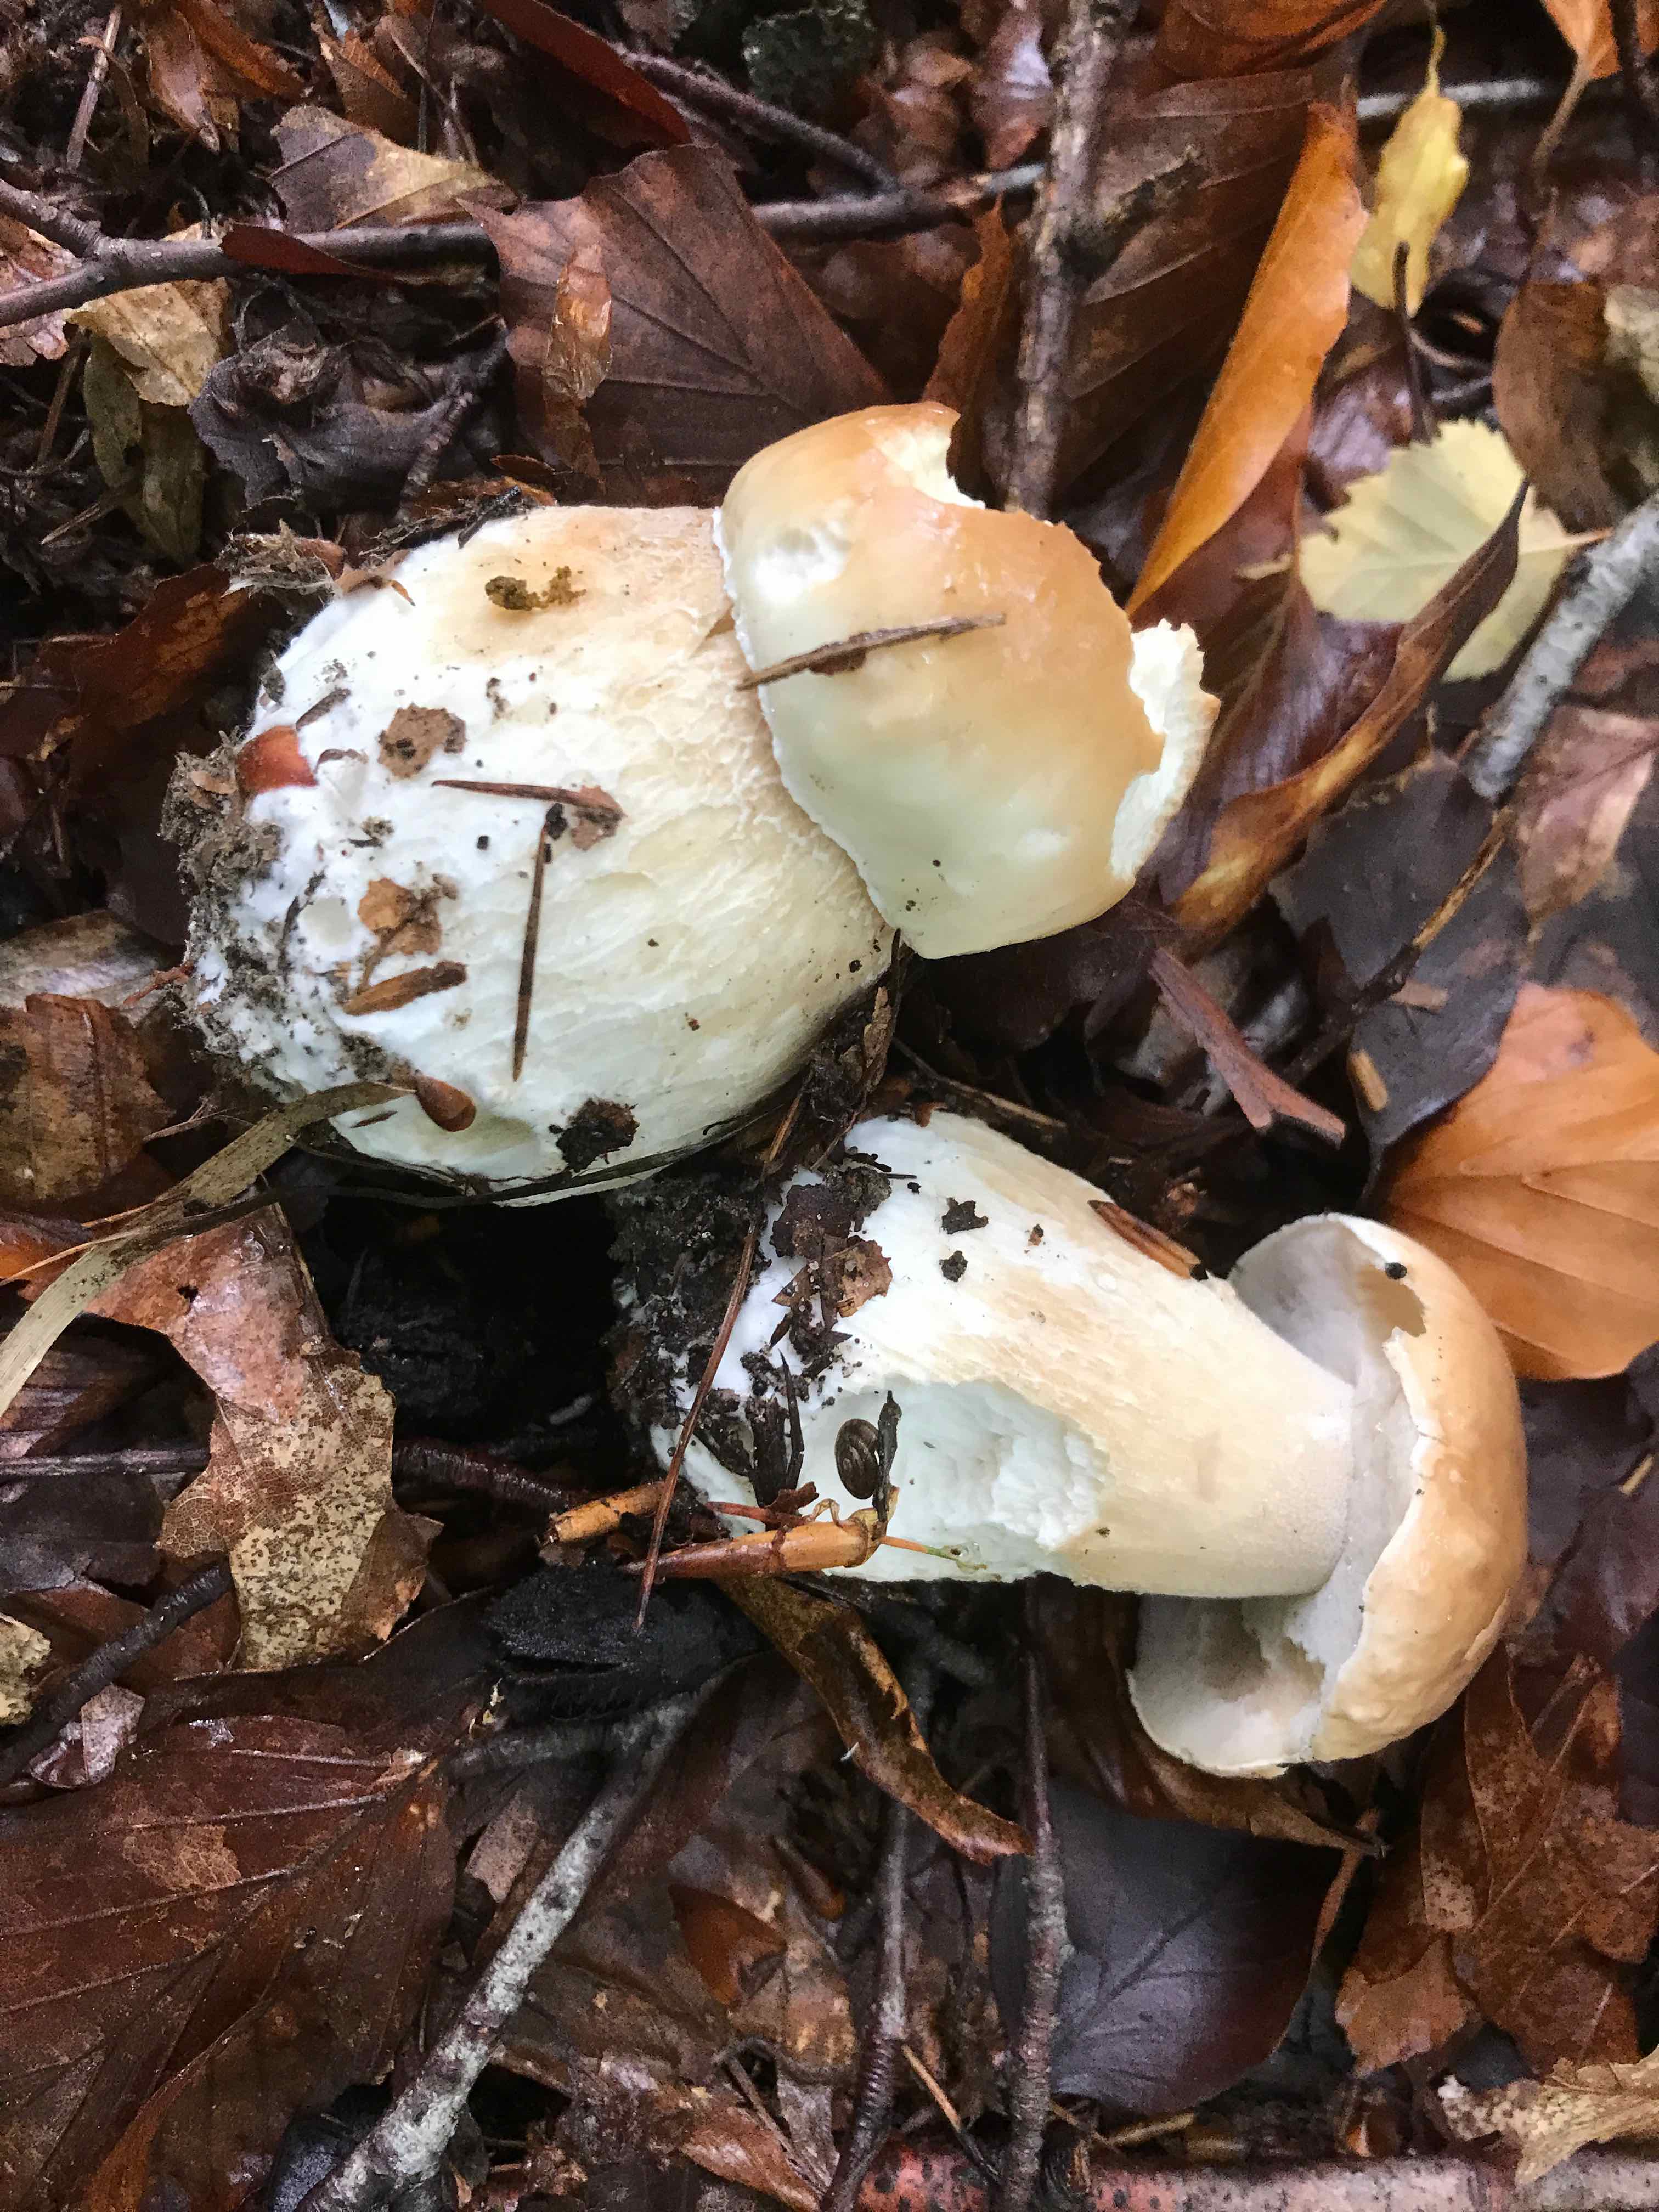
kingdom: Fungi
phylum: Basidiomycota
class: Agaricomycetes
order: Boletales
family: Boletaceae
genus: Boletus
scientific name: Boletus edulis
